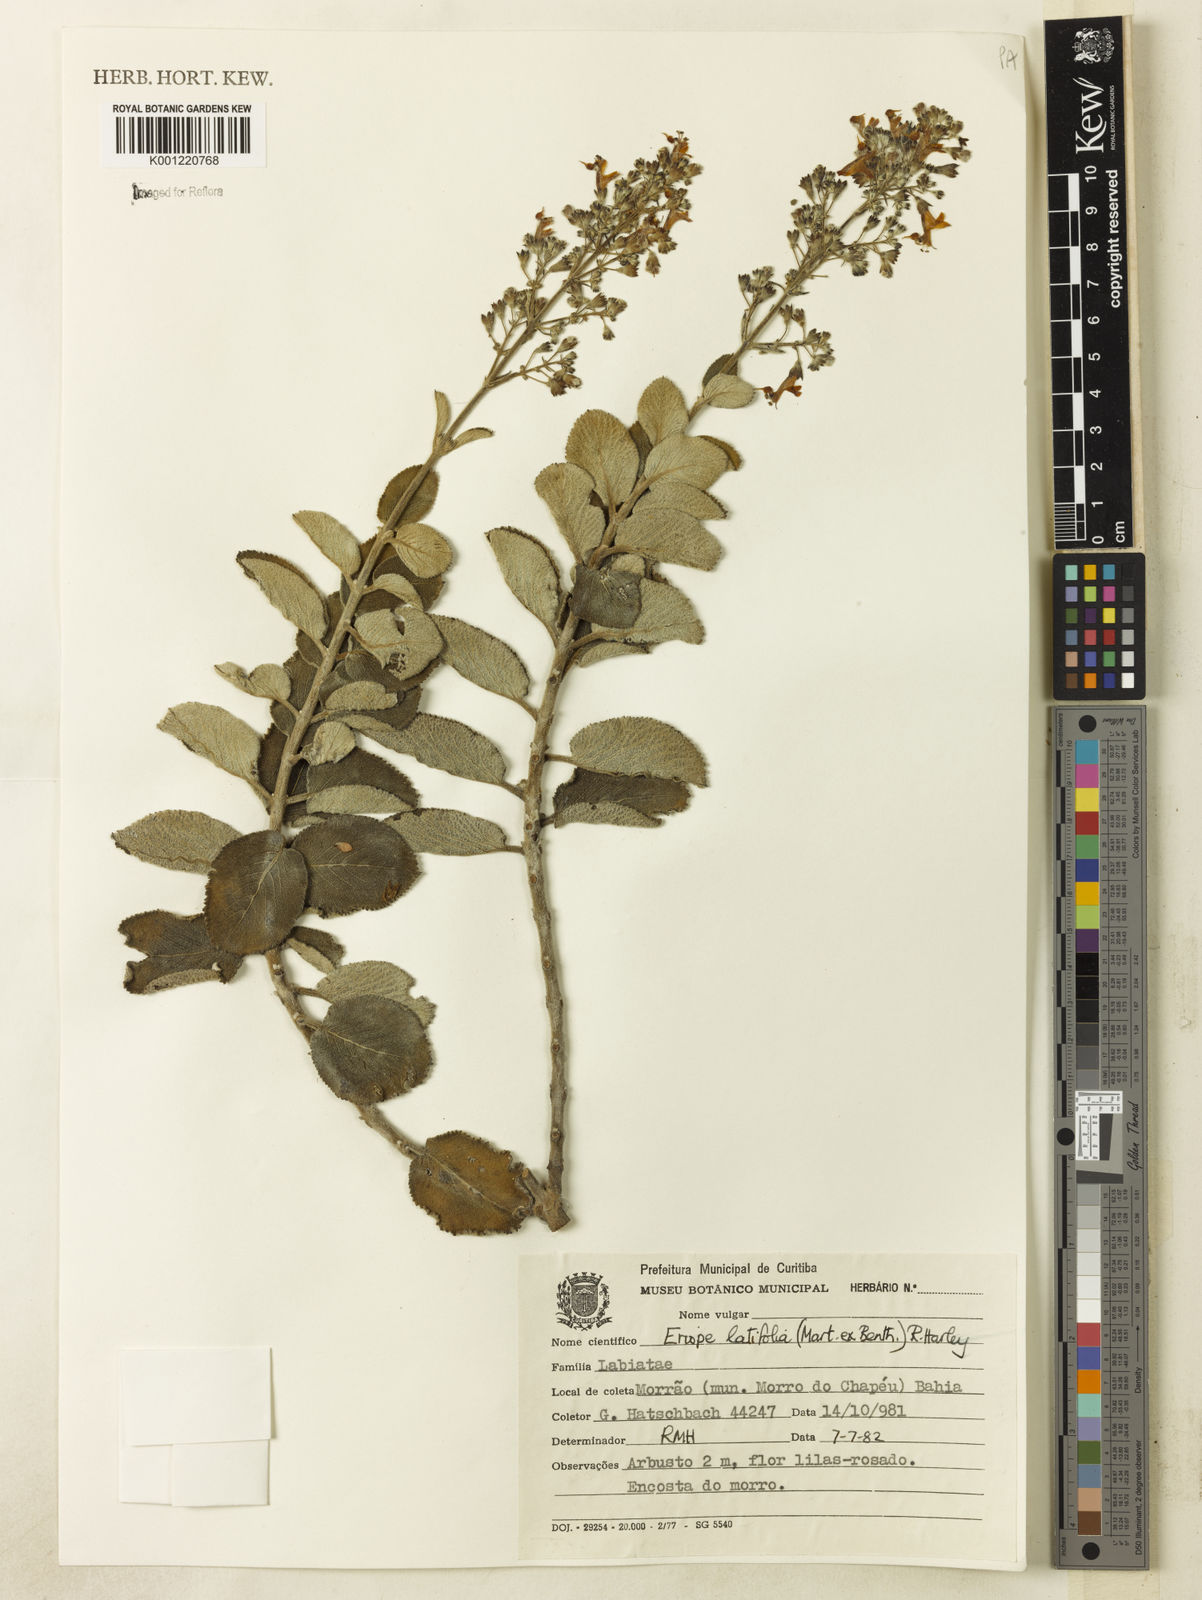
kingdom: Plantae
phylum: Tracheophyta
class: Magnoliopsida
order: Lamiales
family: Lamiaceae
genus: Eriope
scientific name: Eriope latifolia
